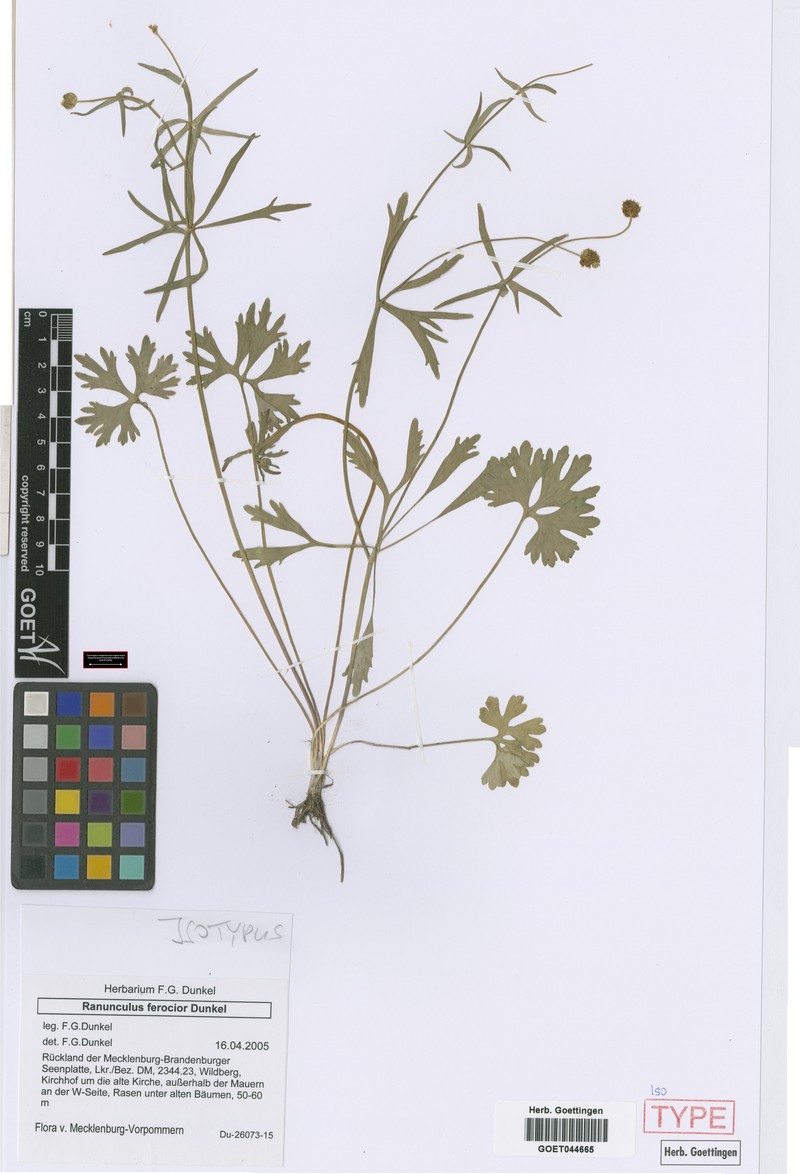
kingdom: Plantae
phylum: Tracheophyta
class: Magnoliopsida
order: Ranunculales
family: Ranunculaceae
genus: Ranunculus
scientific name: Ranunculus ferocior
